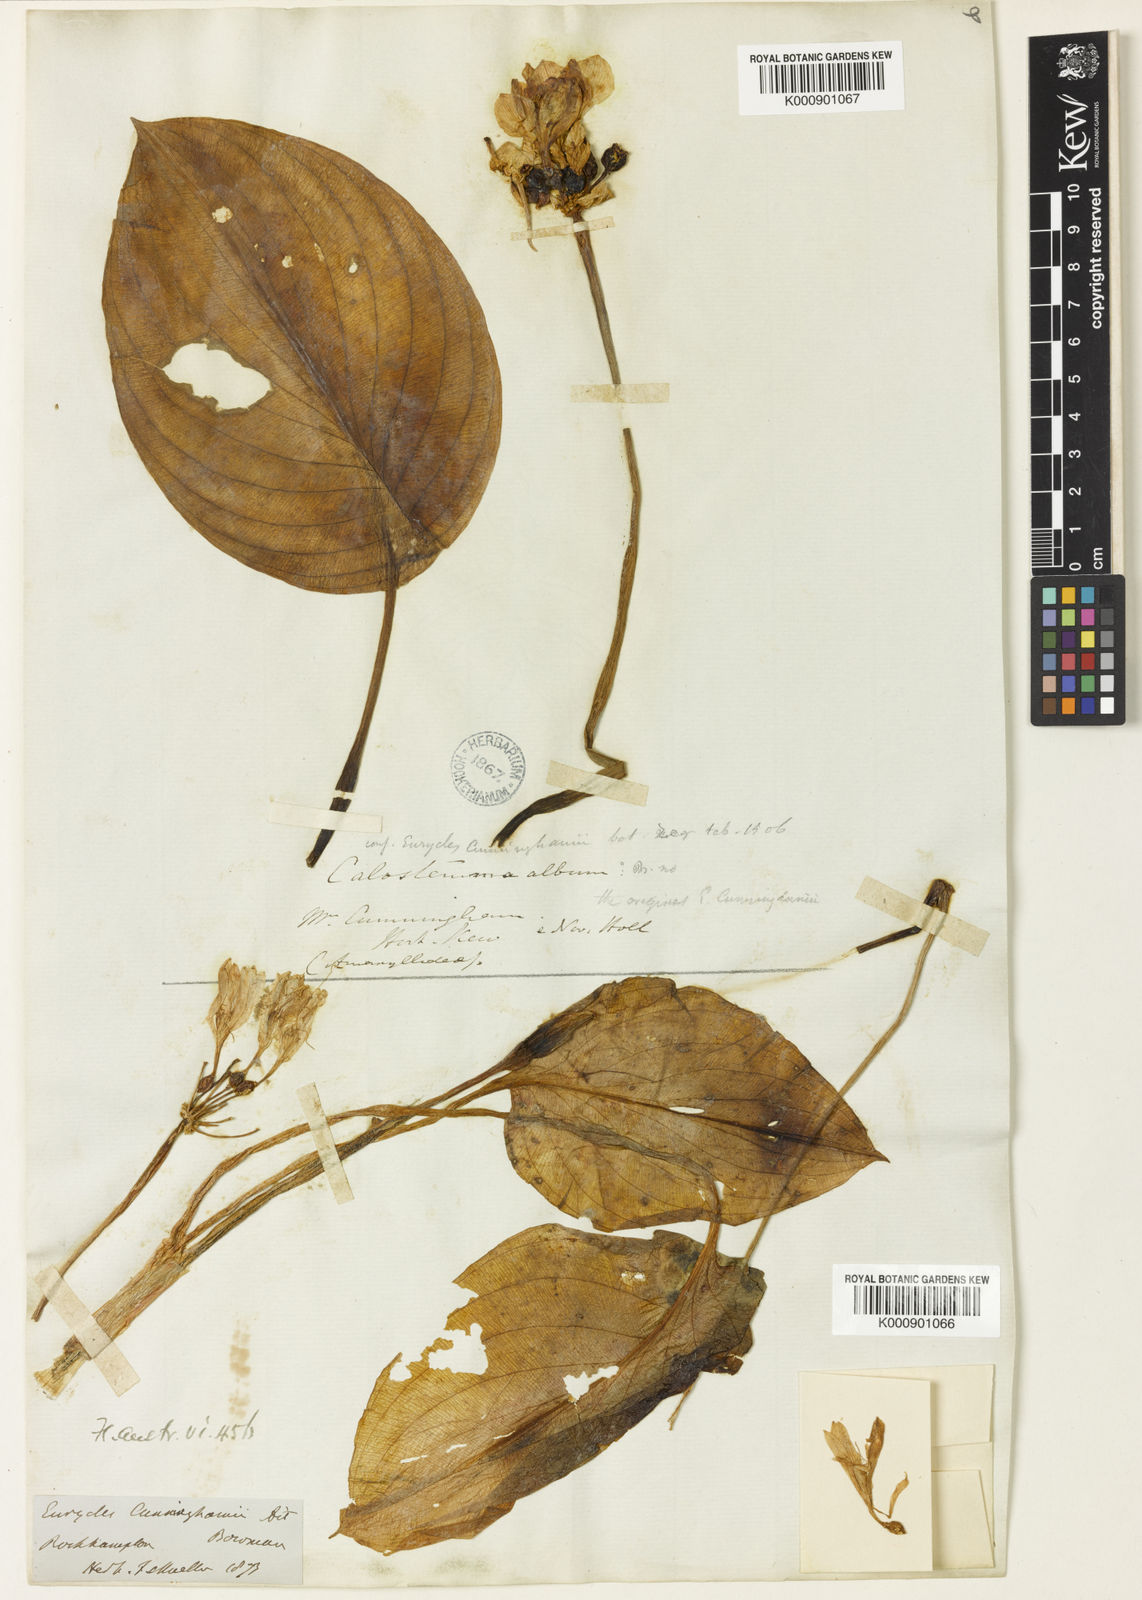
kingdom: Plantae
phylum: Tracheophyta
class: Liliopsida
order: Asparagales
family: Amaryllidaceae
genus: Proiphys
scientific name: Proiphys cunninghamii
